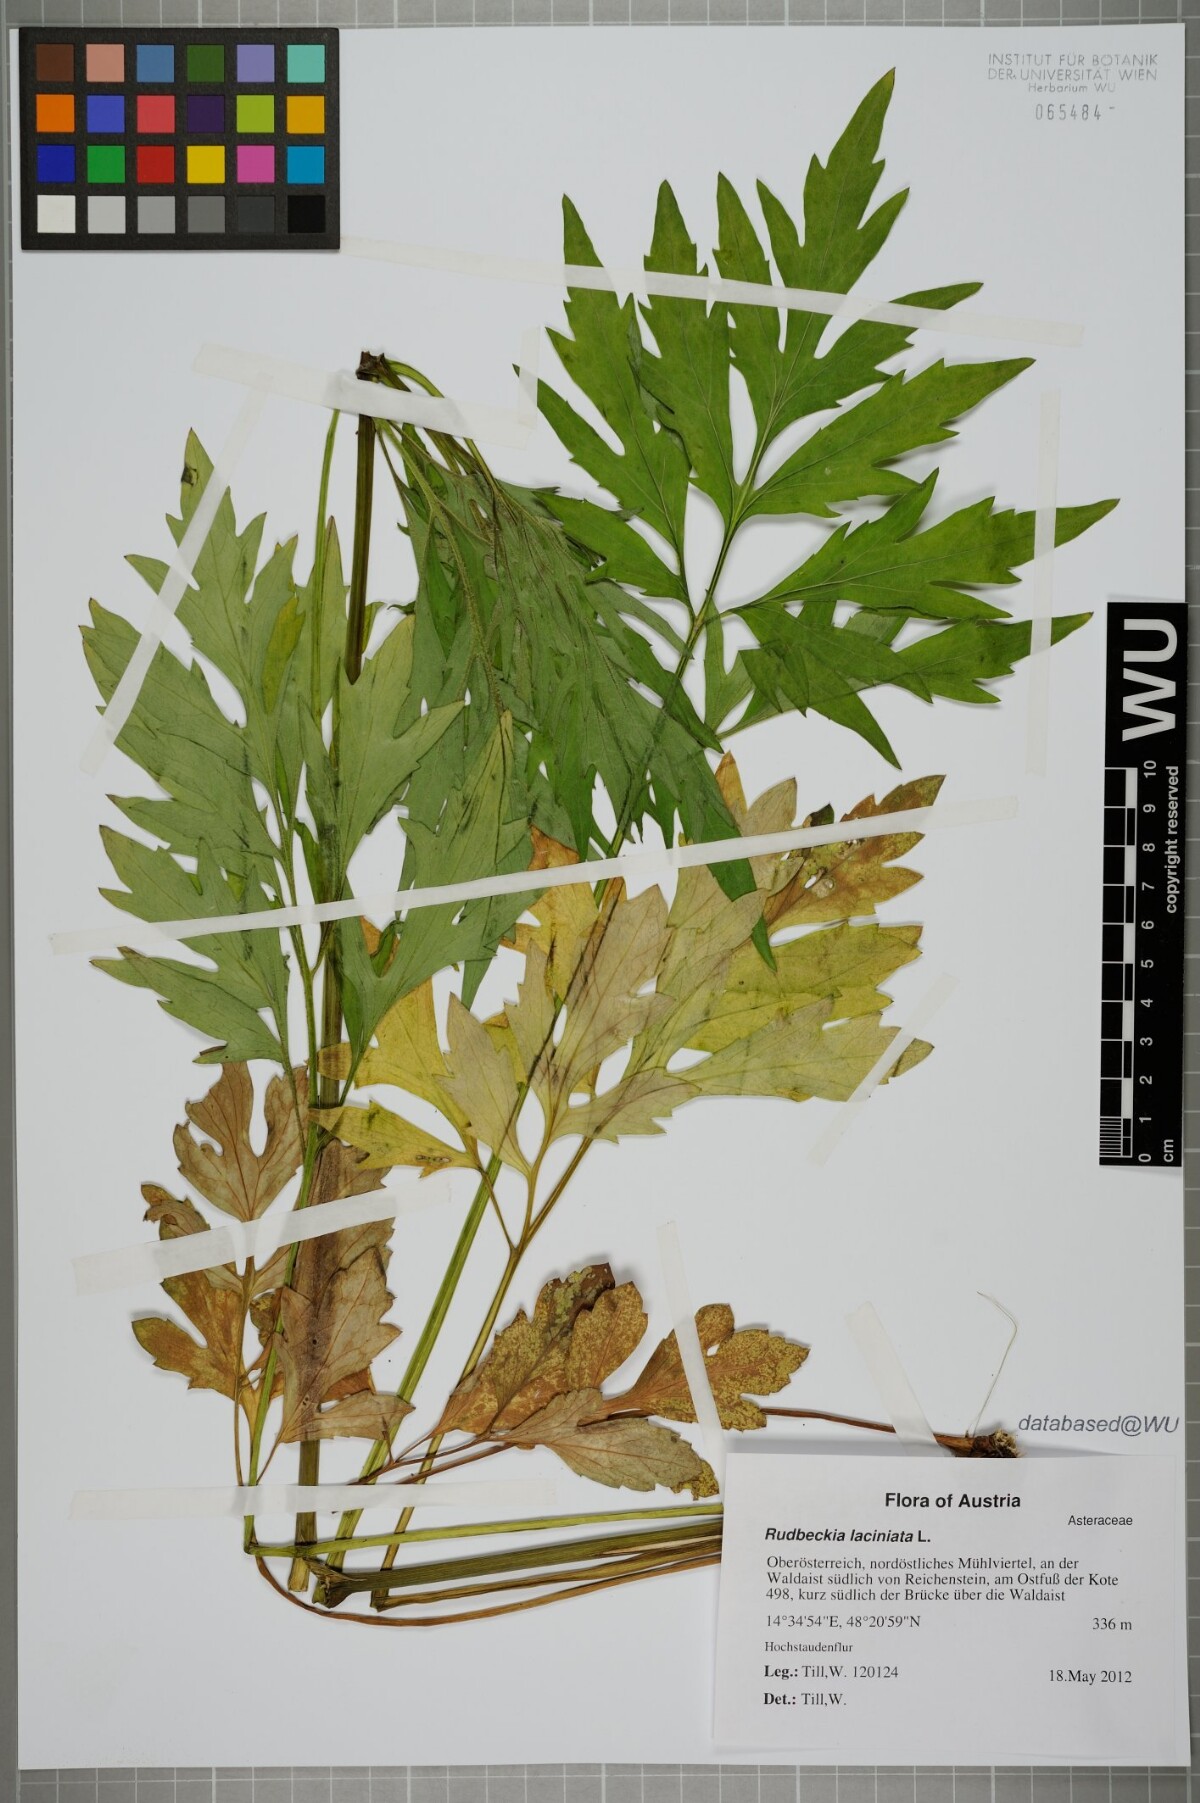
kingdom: Plantae
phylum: Tracheophyta
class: Magnoliopsida
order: Asterales
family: Asteraceae
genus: Rudbeckia
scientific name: Rudbeckia laciniata
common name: Coneflower
